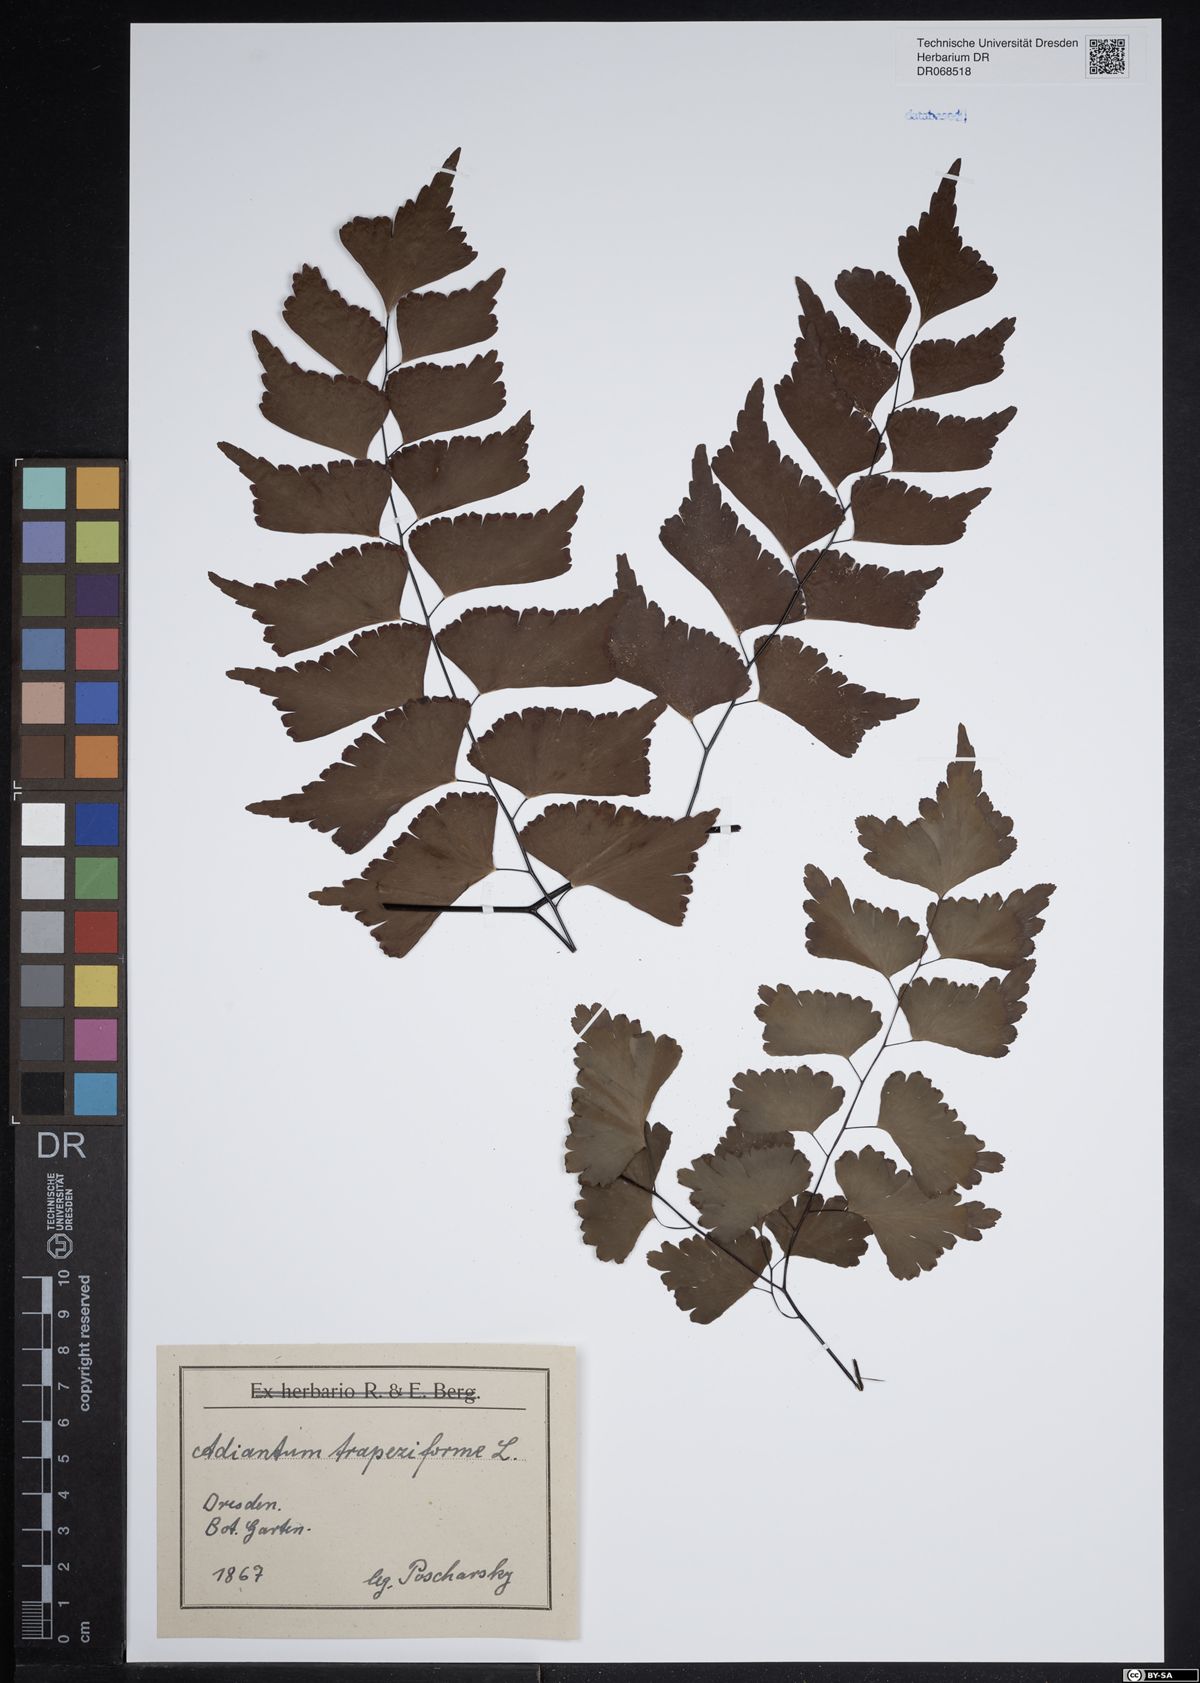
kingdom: Plantae
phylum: Tracheophyta
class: Polypodiopsida
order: Polypodiales
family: Pteridaceae
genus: Adiantum
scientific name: Adiantum trapeziforme
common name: Diamond maidenhair
